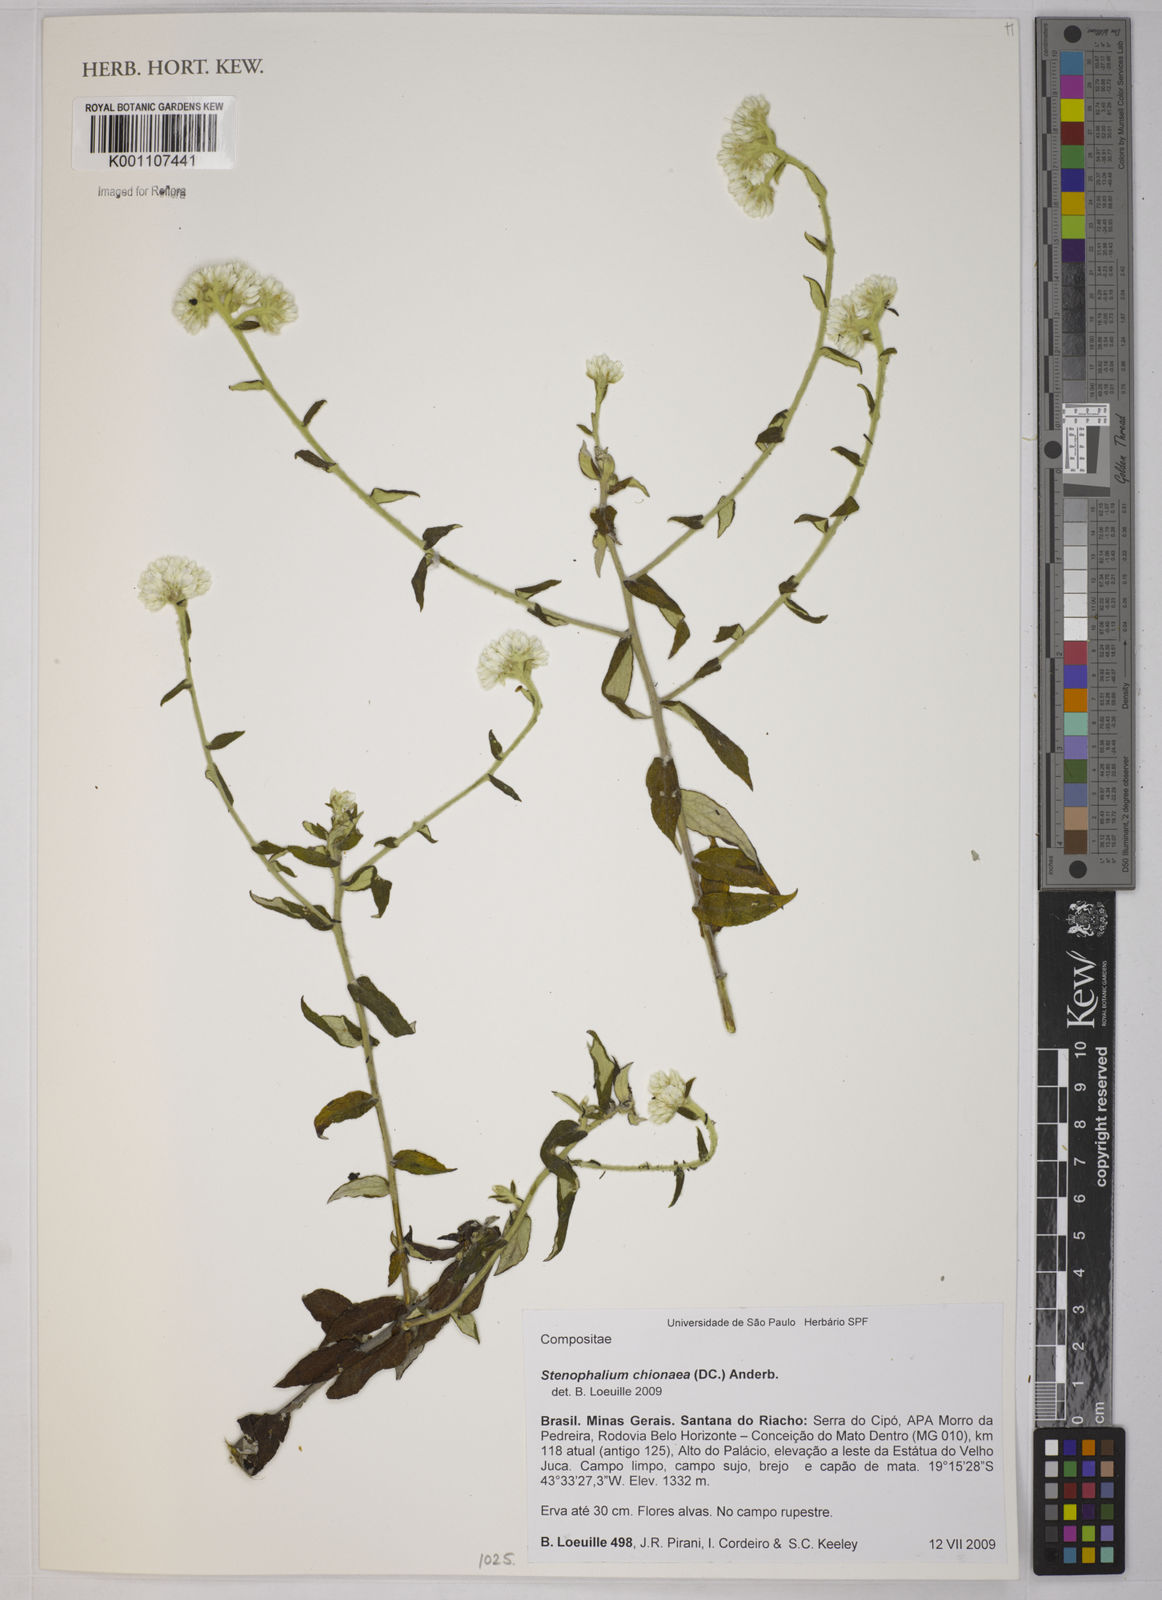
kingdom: Plantae
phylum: Tracheophyta
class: Magnoliopsida
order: Asterales
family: Asteraceae
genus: Achyrocline
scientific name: Achyrocline chionaea
